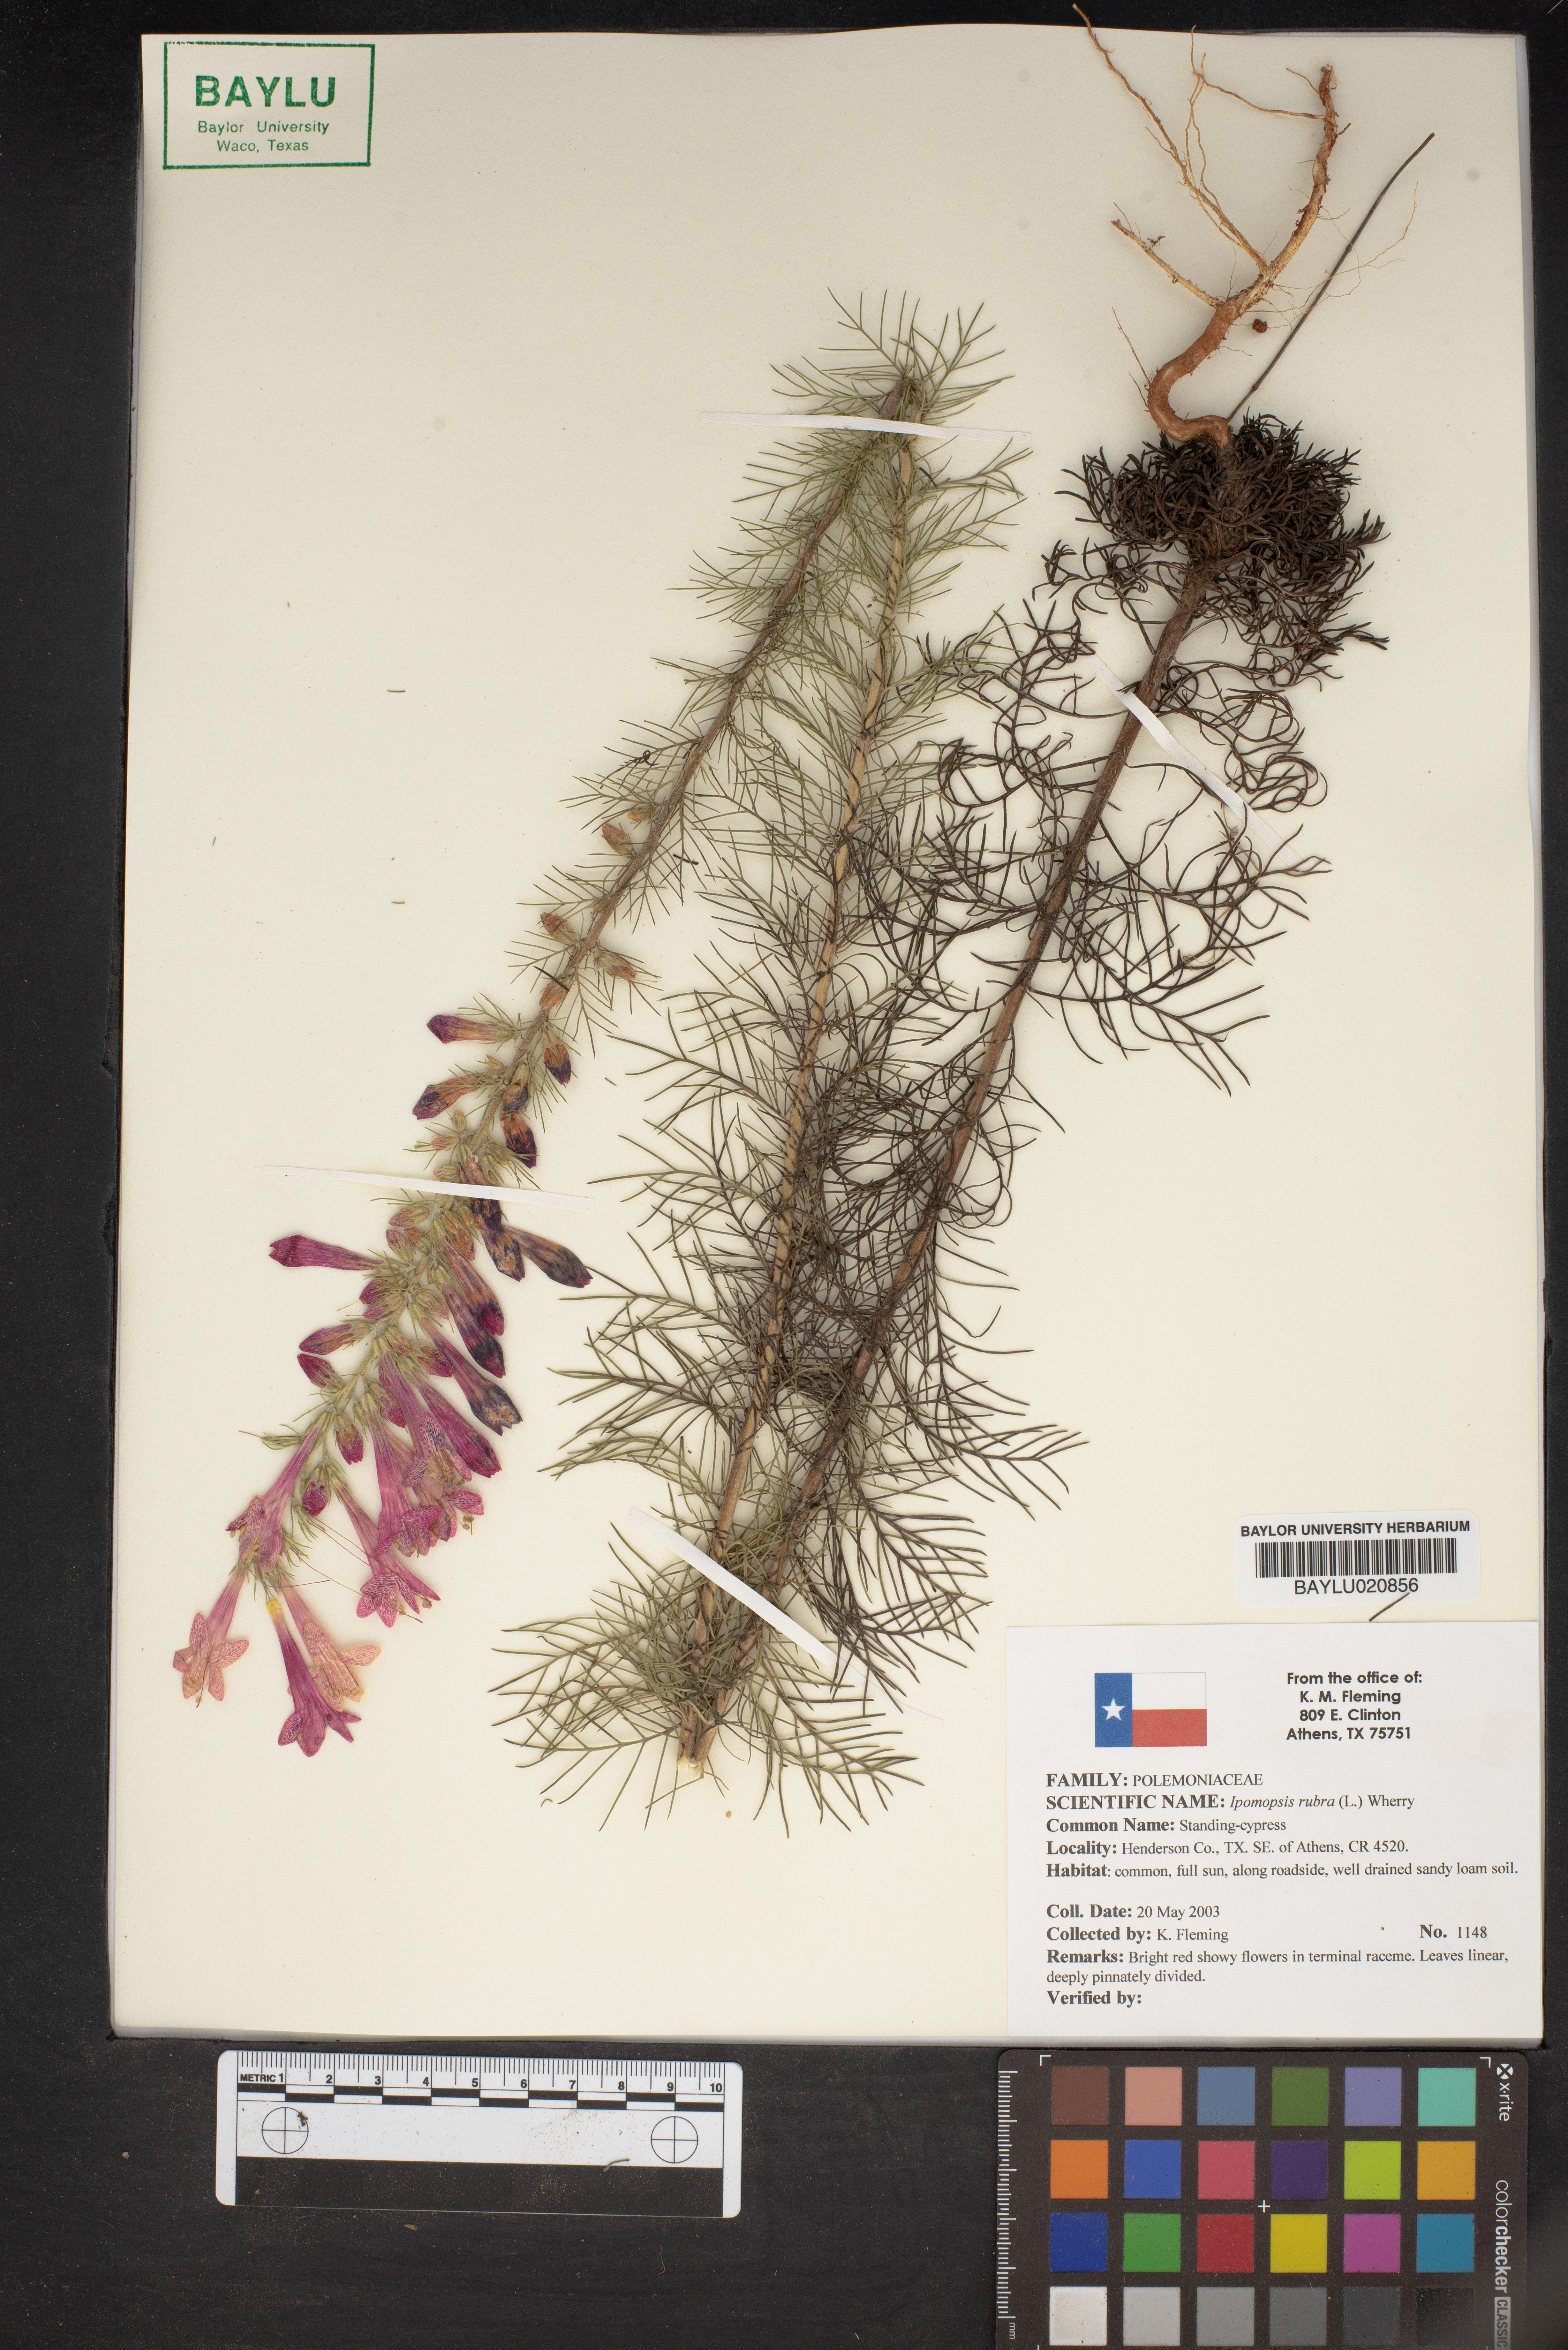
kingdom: Plantae
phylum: Tracheophyta
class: Magnoliopsida
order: Ericales
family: Polemoniaceae
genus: Ipomopsis
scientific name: Ipomopsis rubra
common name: Skyrocket
